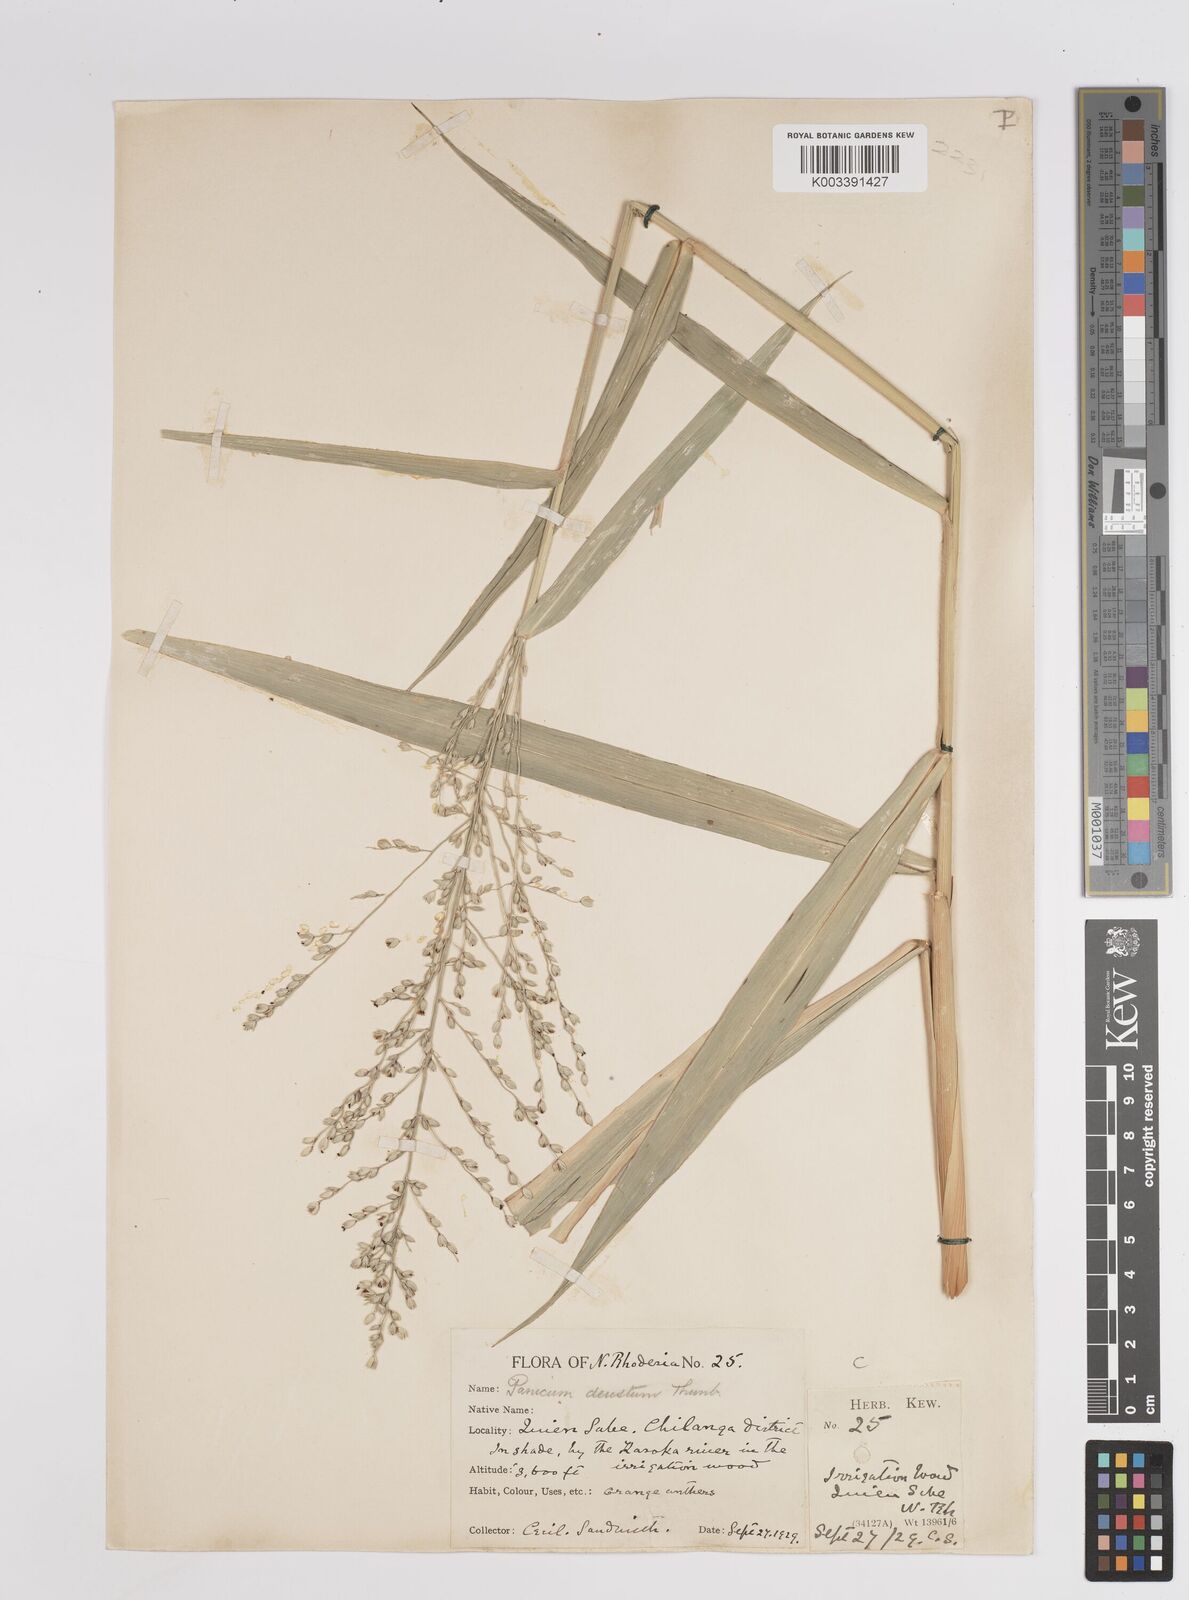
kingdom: Plantae
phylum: Tracheophyta
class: Liliopsida
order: Poales
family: Poaceae
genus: Panicum
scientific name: Panicum deustum
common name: Reed panicum
